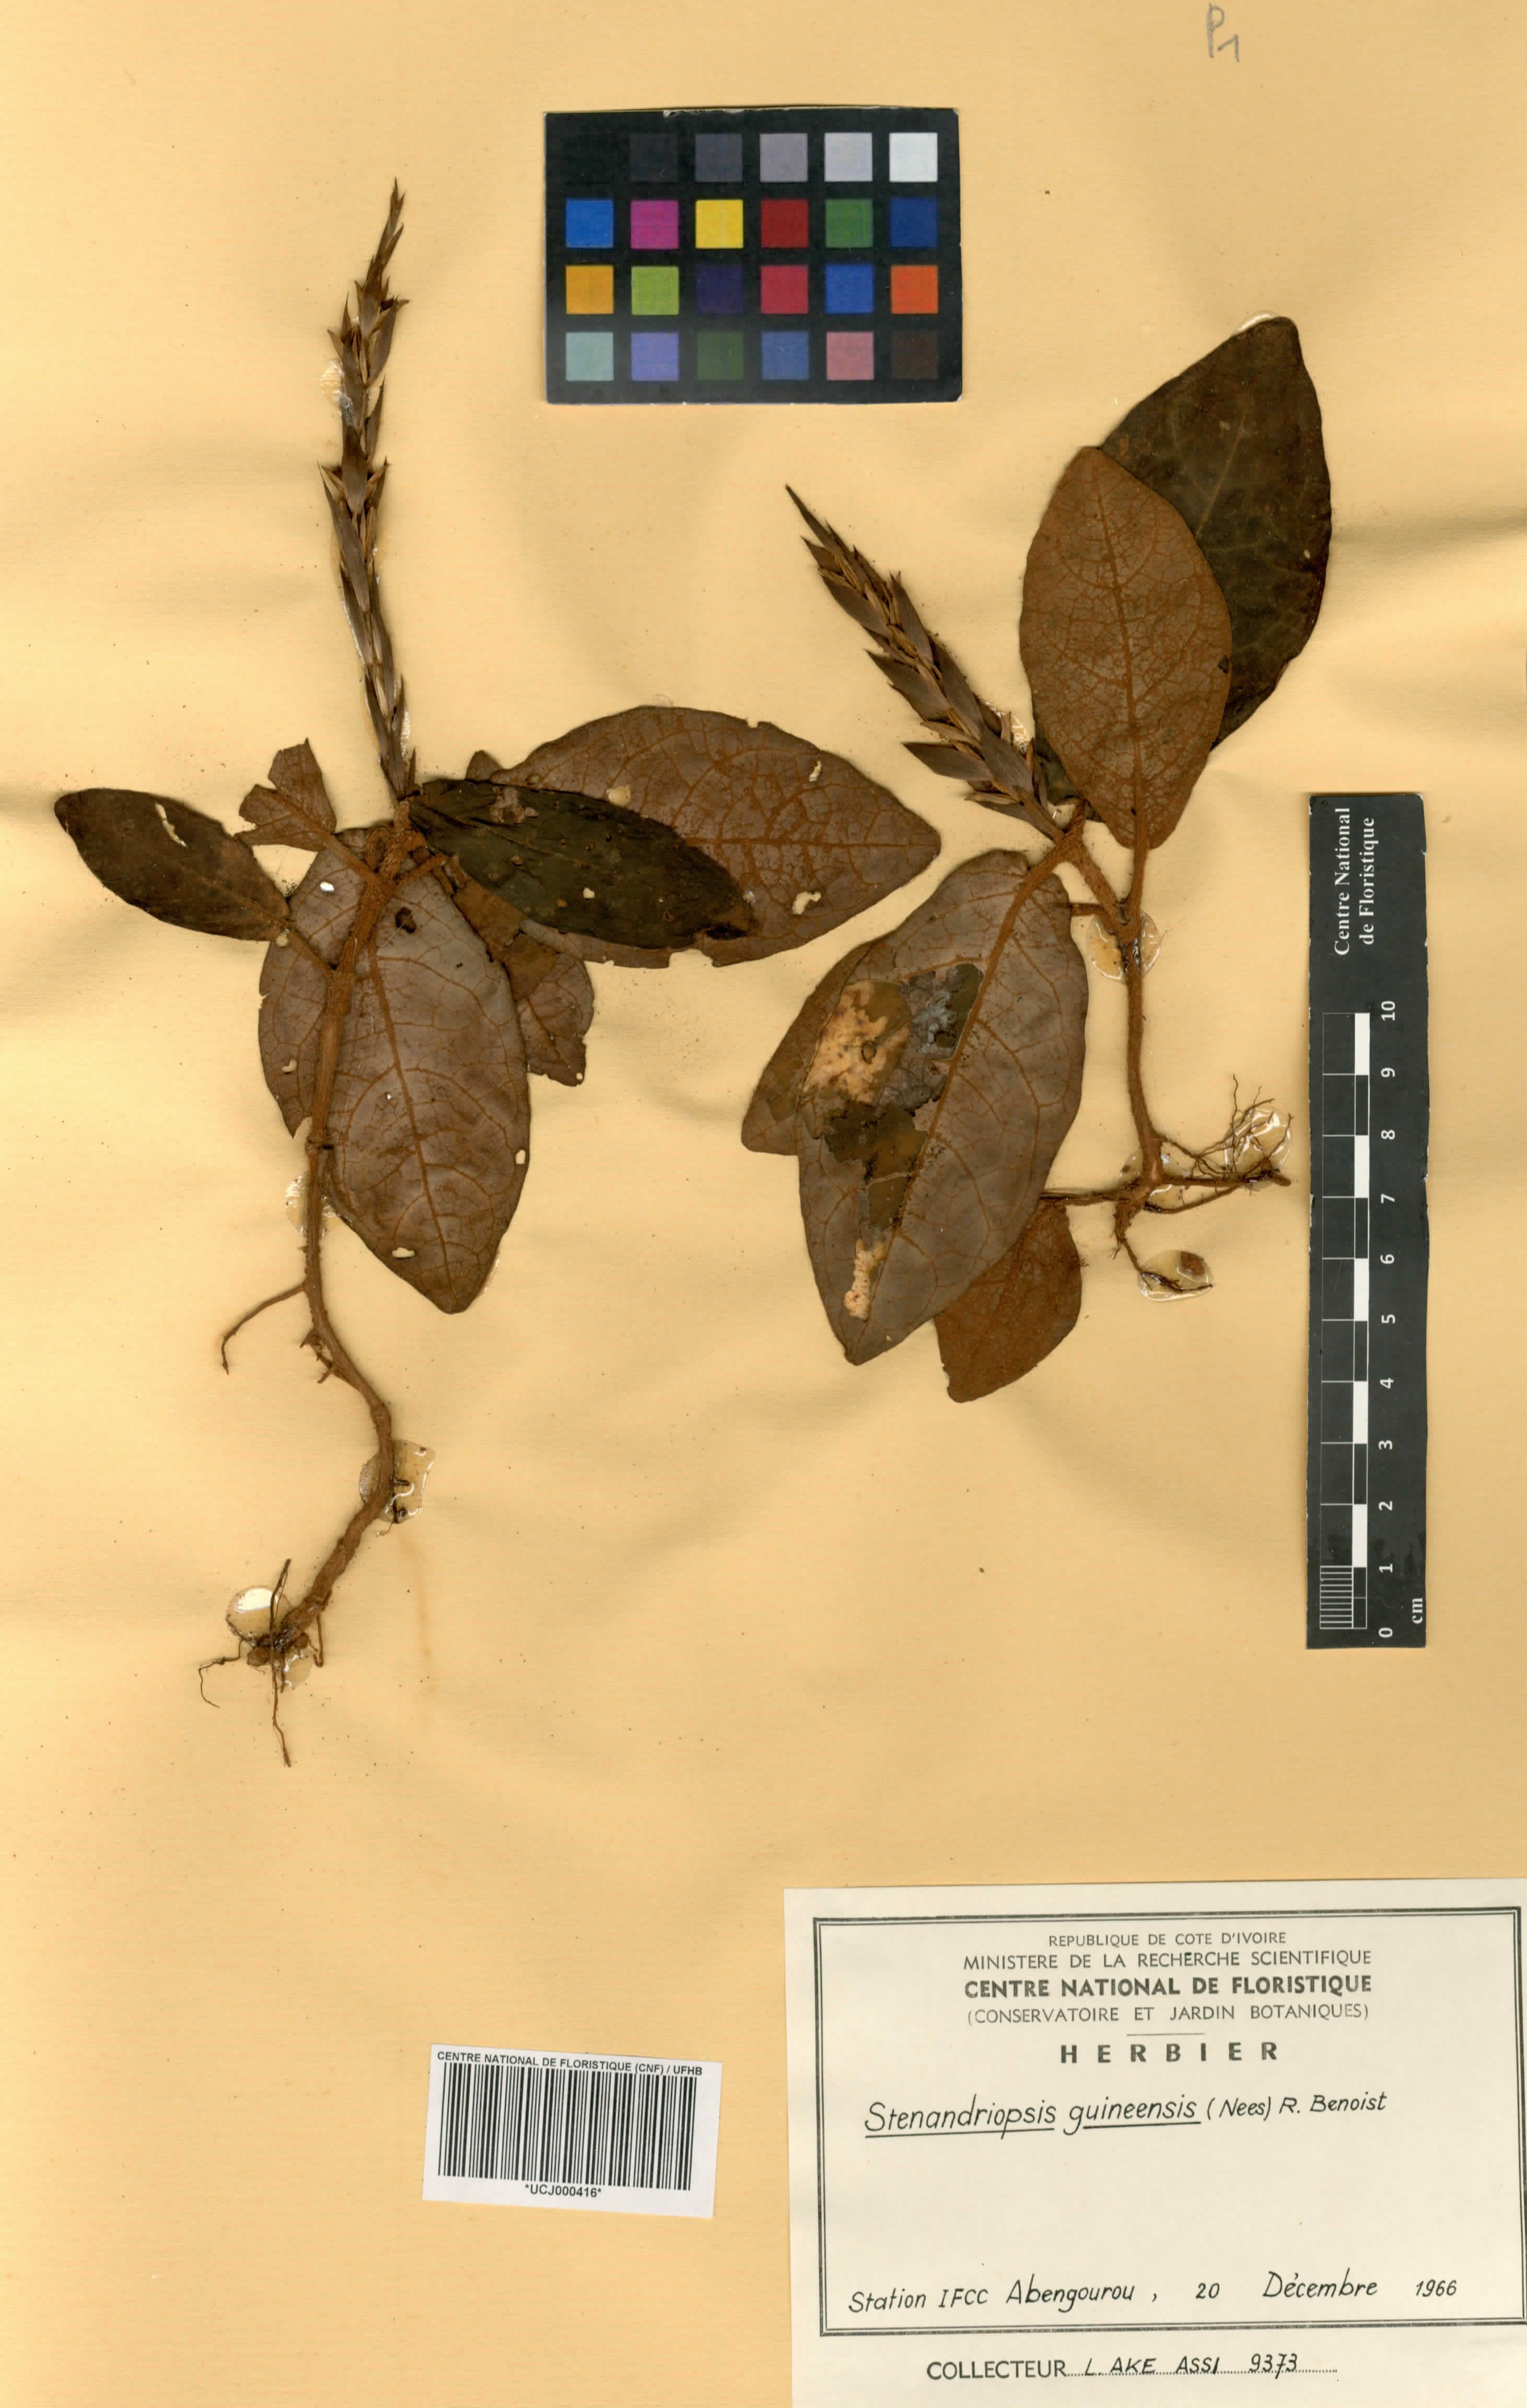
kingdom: Plantae
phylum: Tracheophyta
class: Magnoliopsida
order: Lamiales
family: Acanthaceae
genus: Stenandriopsis
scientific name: Stenandriopsis guineensis
